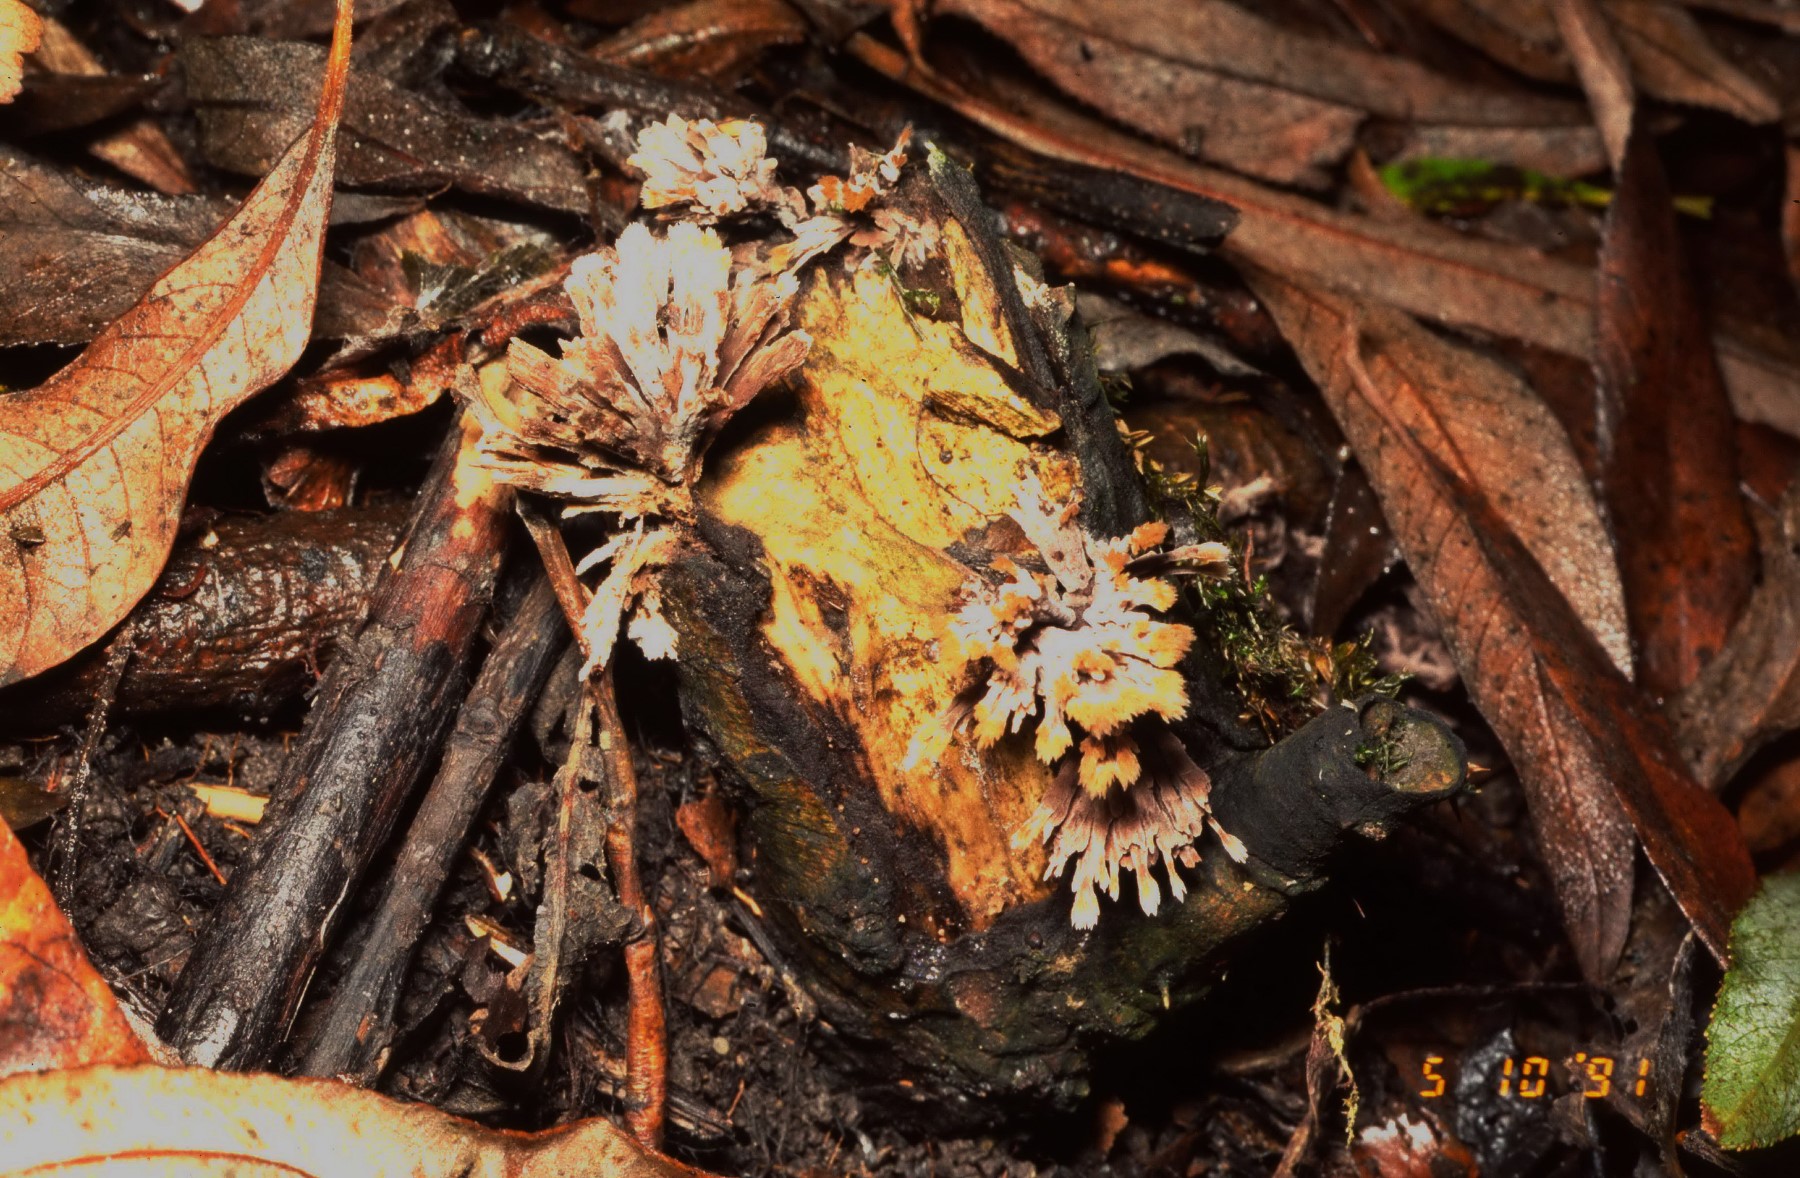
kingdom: Fungi
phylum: Basidiomycota
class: Agaricomycetes
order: Thelephorales
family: Thelephoraceae
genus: Thelephora
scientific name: Thelephora penicillata
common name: fladtrådt frynsesvamp
